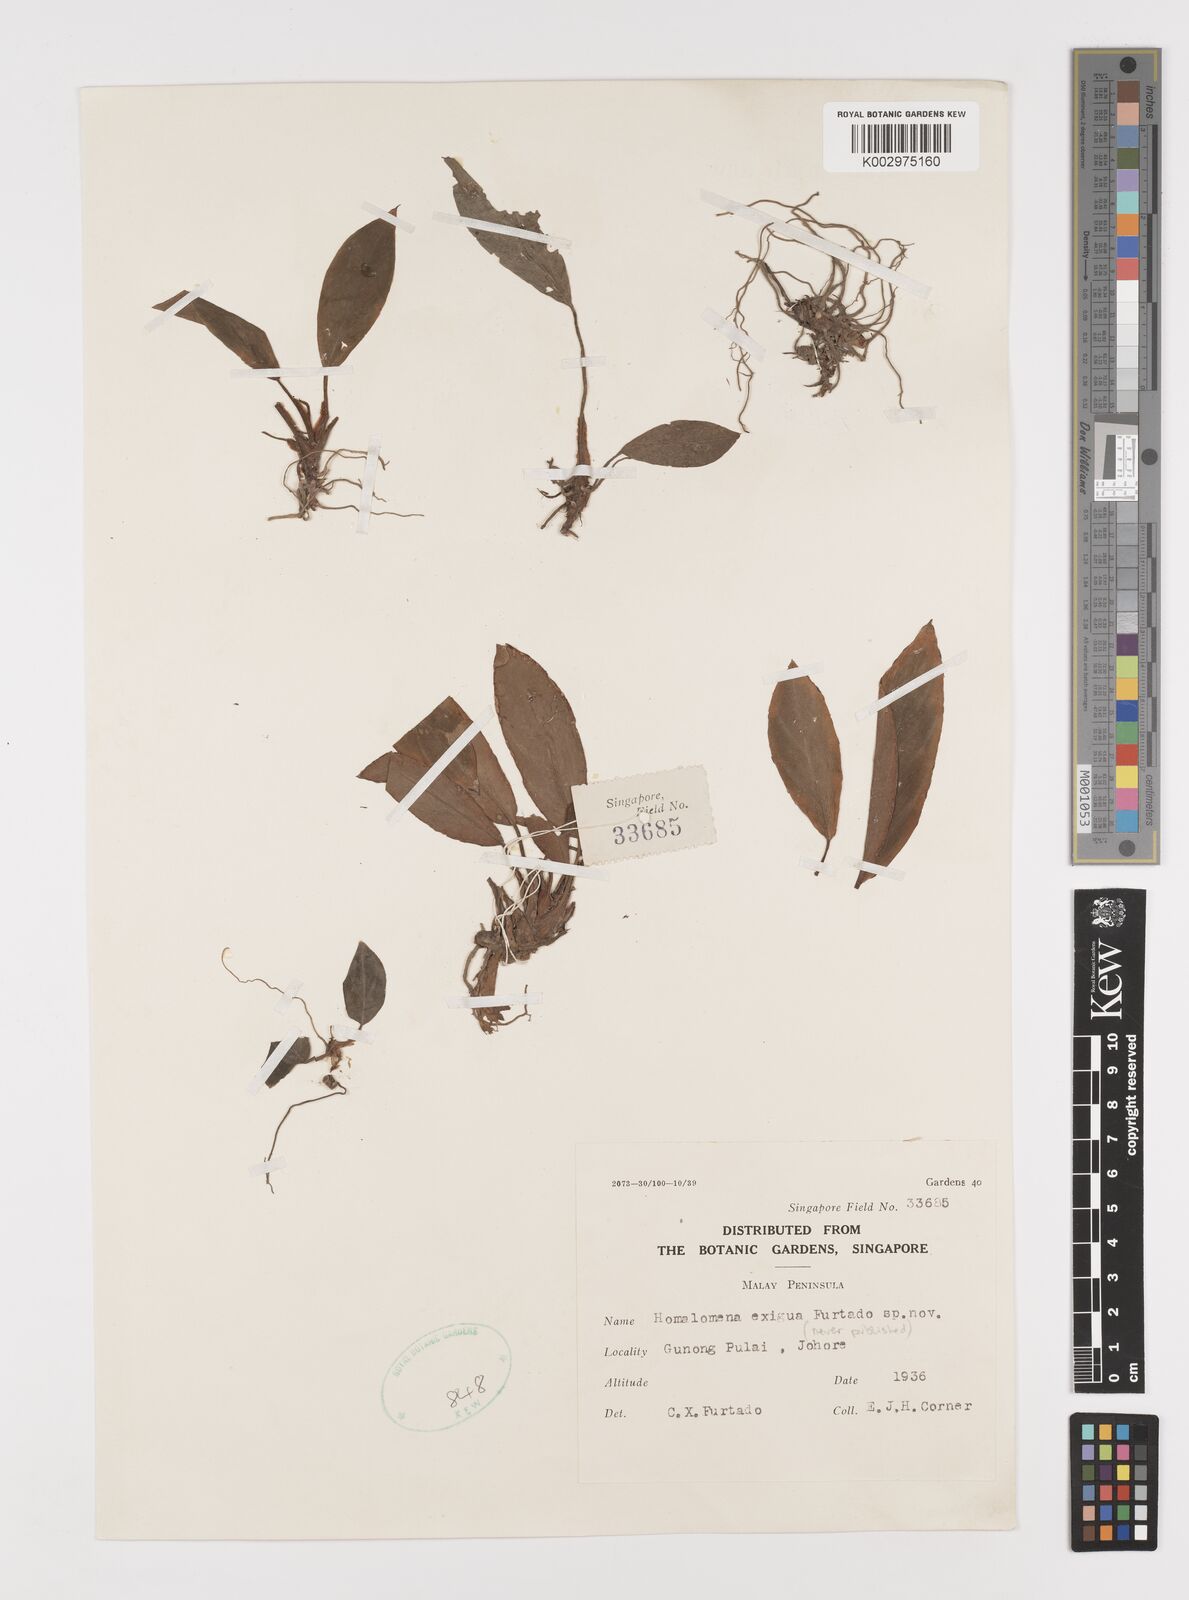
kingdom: Plantae
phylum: Tracheophyta
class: Liliopsida
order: Alismatales
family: Araceae
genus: Homalomena
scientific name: Homalomena
